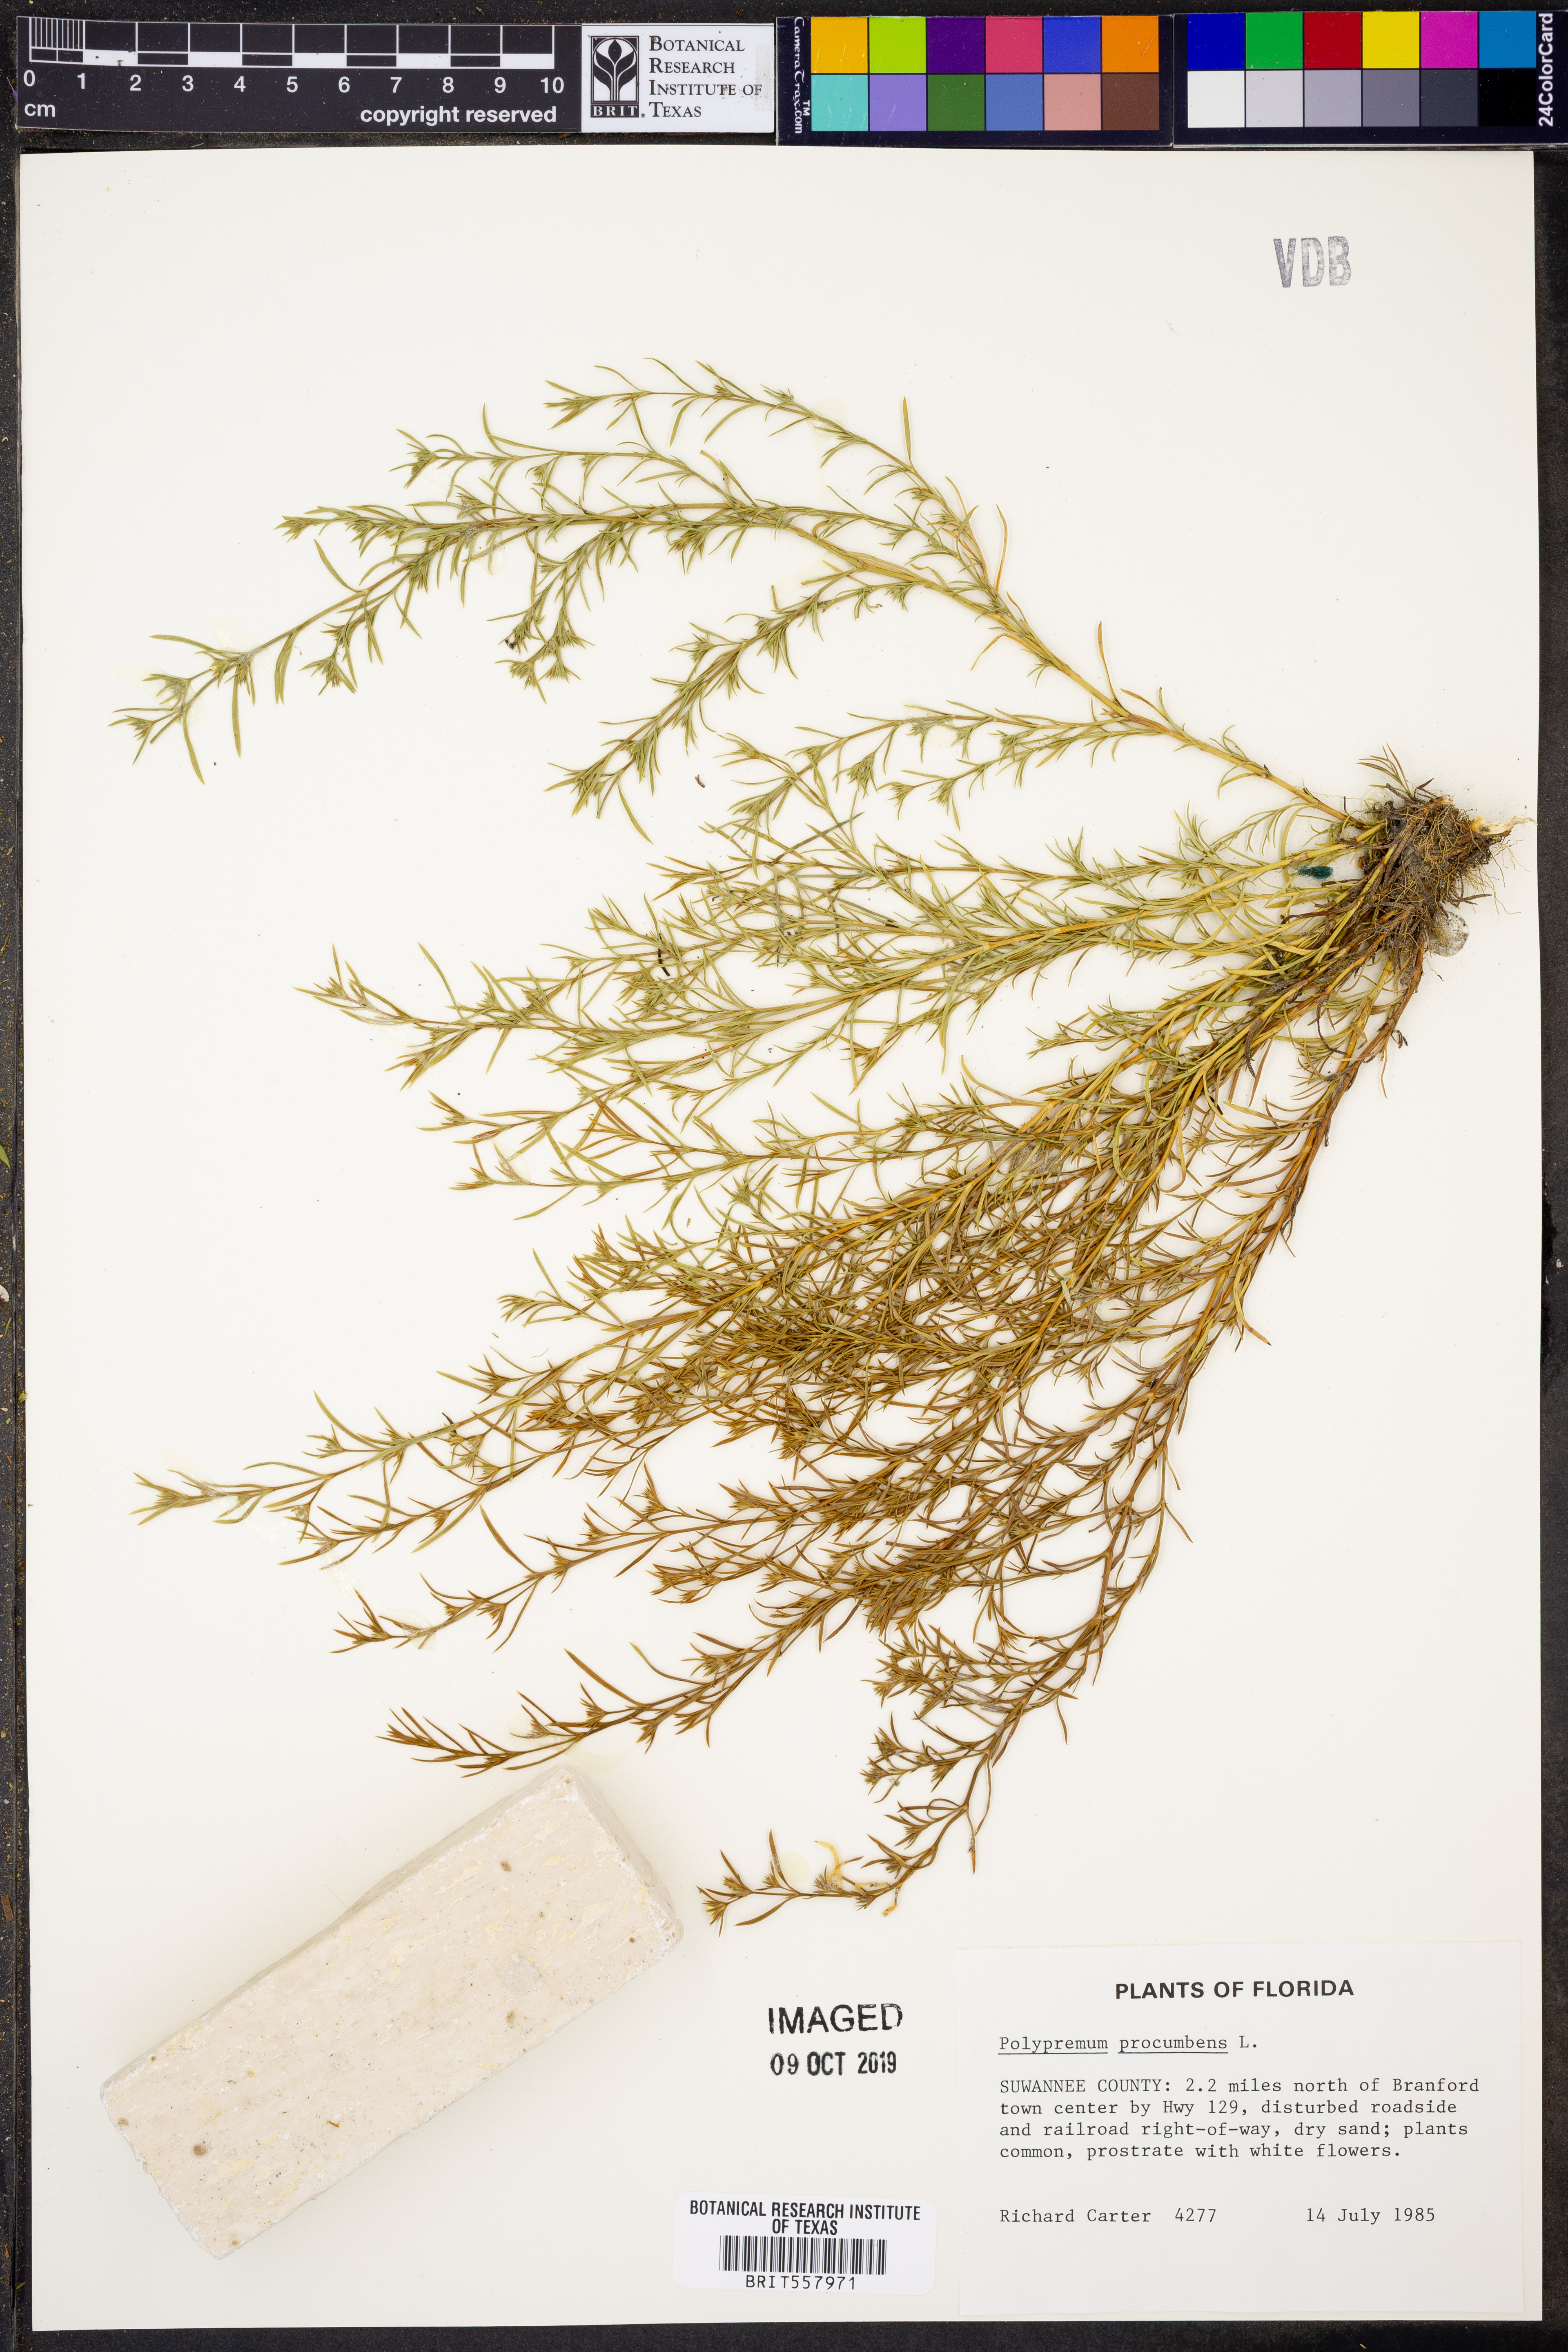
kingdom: Plantae
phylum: Tracheophyta
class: Magnoliopsida
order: Lamiales
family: Tetrachondraceae
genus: Polypremum
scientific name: Polypremum procumbens
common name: Juniper-leaf
